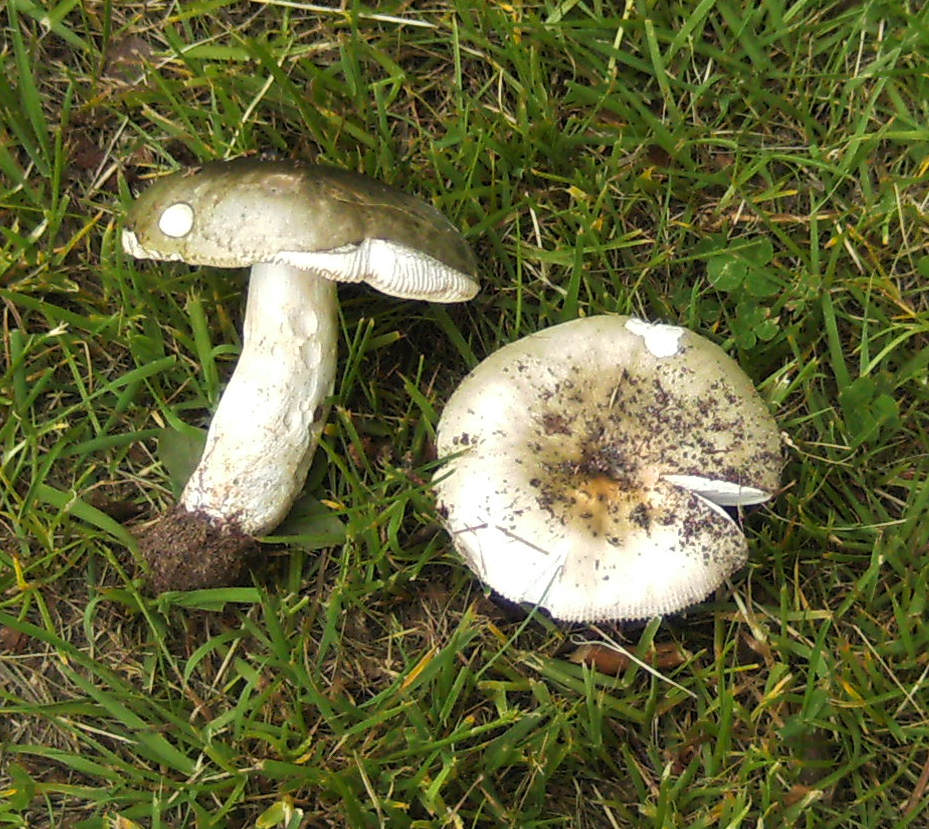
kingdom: Fungi
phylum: Basidiomycota
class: Agaricomycetes
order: Russulales
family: Russulaceae
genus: Russula
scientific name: Russula aeruginea
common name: græsgrøn skørhat
